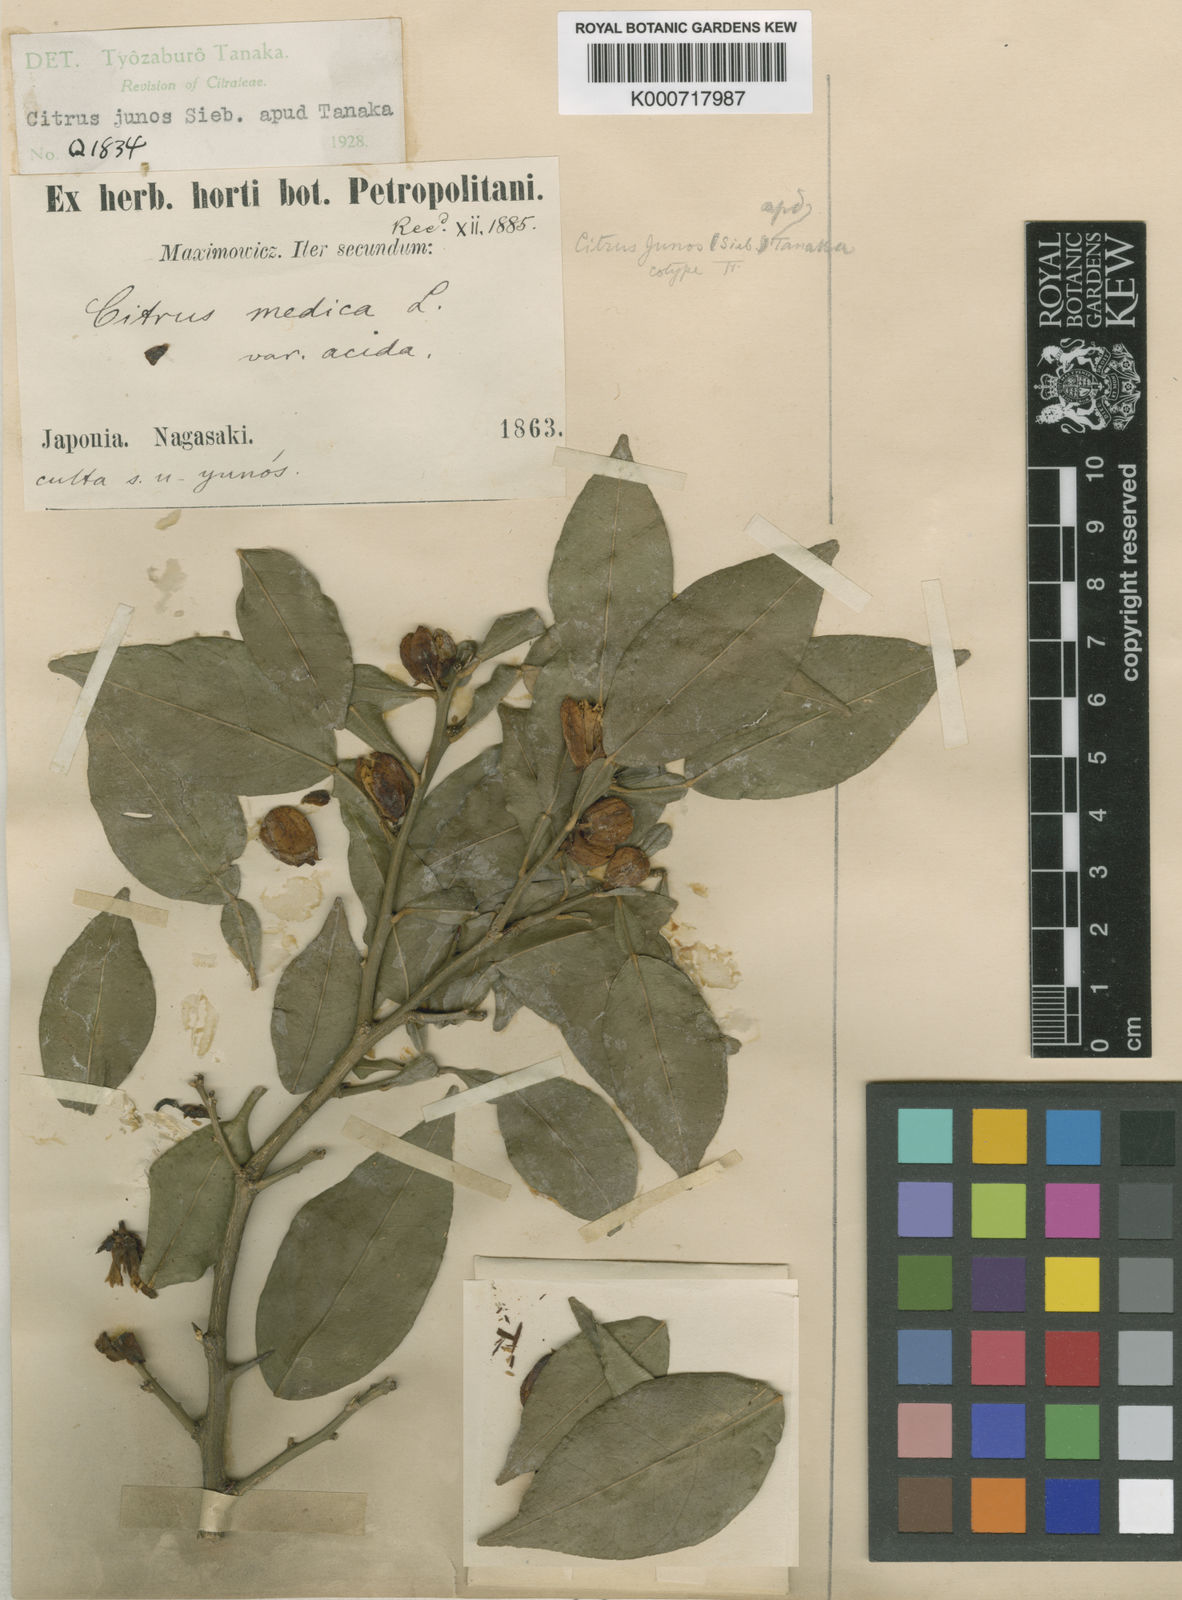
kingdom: Plantae
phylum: Tracheophyta
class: Magnoliopsida
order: Sapindales
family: Rutaceae
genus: Citrus
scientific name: Citrus junos
